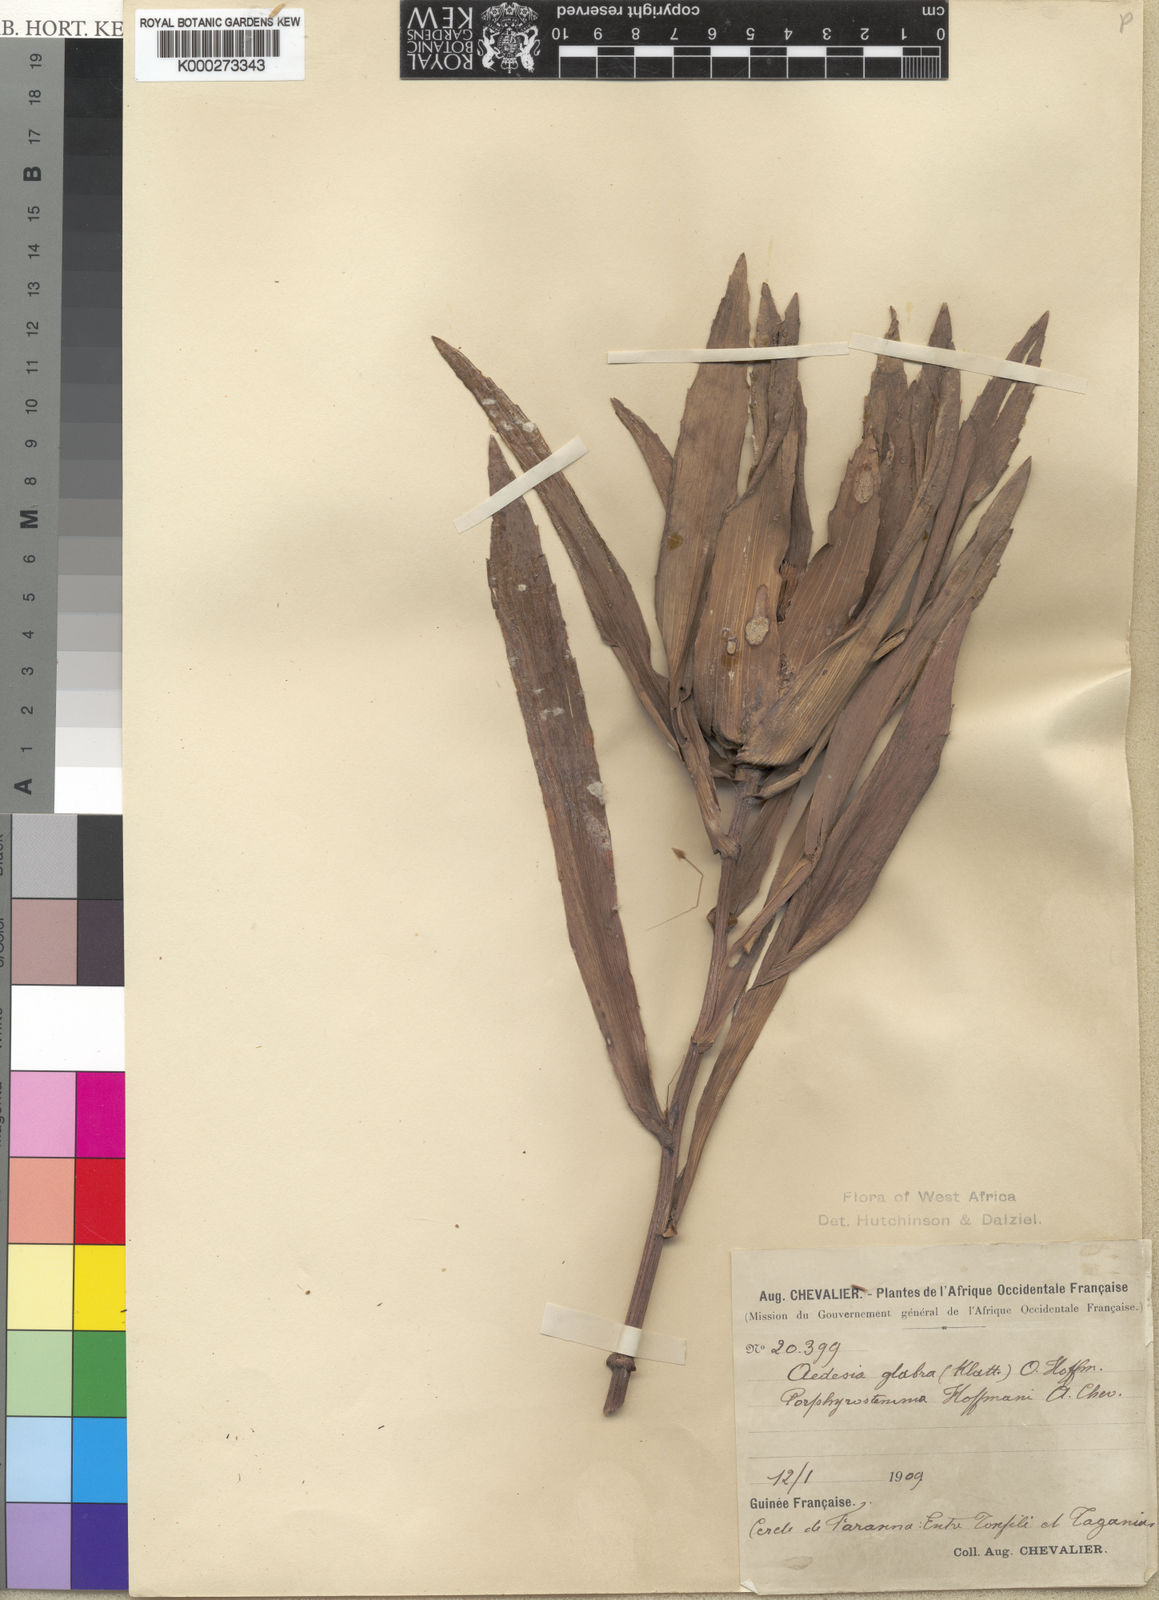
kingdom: Plantae
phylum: Tracheophyta
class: Magnoliopsida
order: Asterales
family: Asteraceae
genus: Aedesia
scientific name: Aedesia glabra
